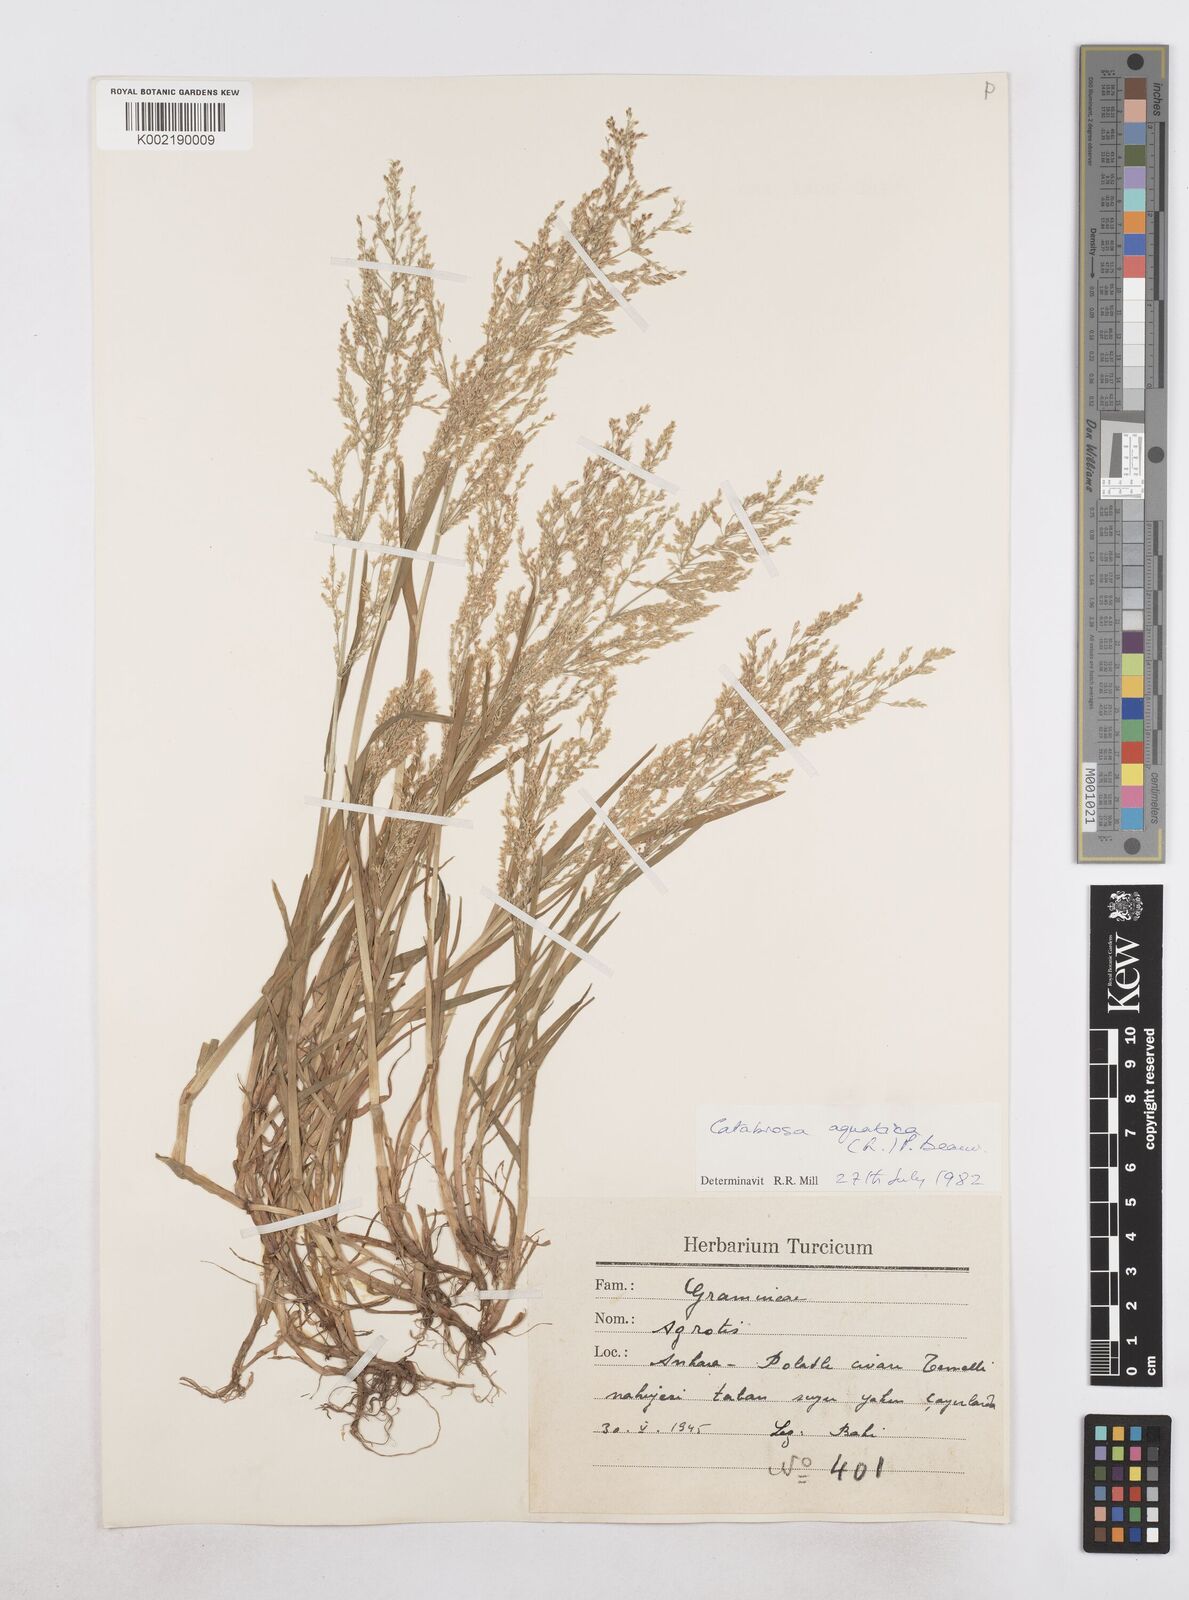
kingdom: Plantae
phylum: Tracheophyta
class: Liliopsida
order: Poales
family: Poaceae
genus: Catabrosa
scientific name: Catabrosa aquatica
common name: Whorl-grass
